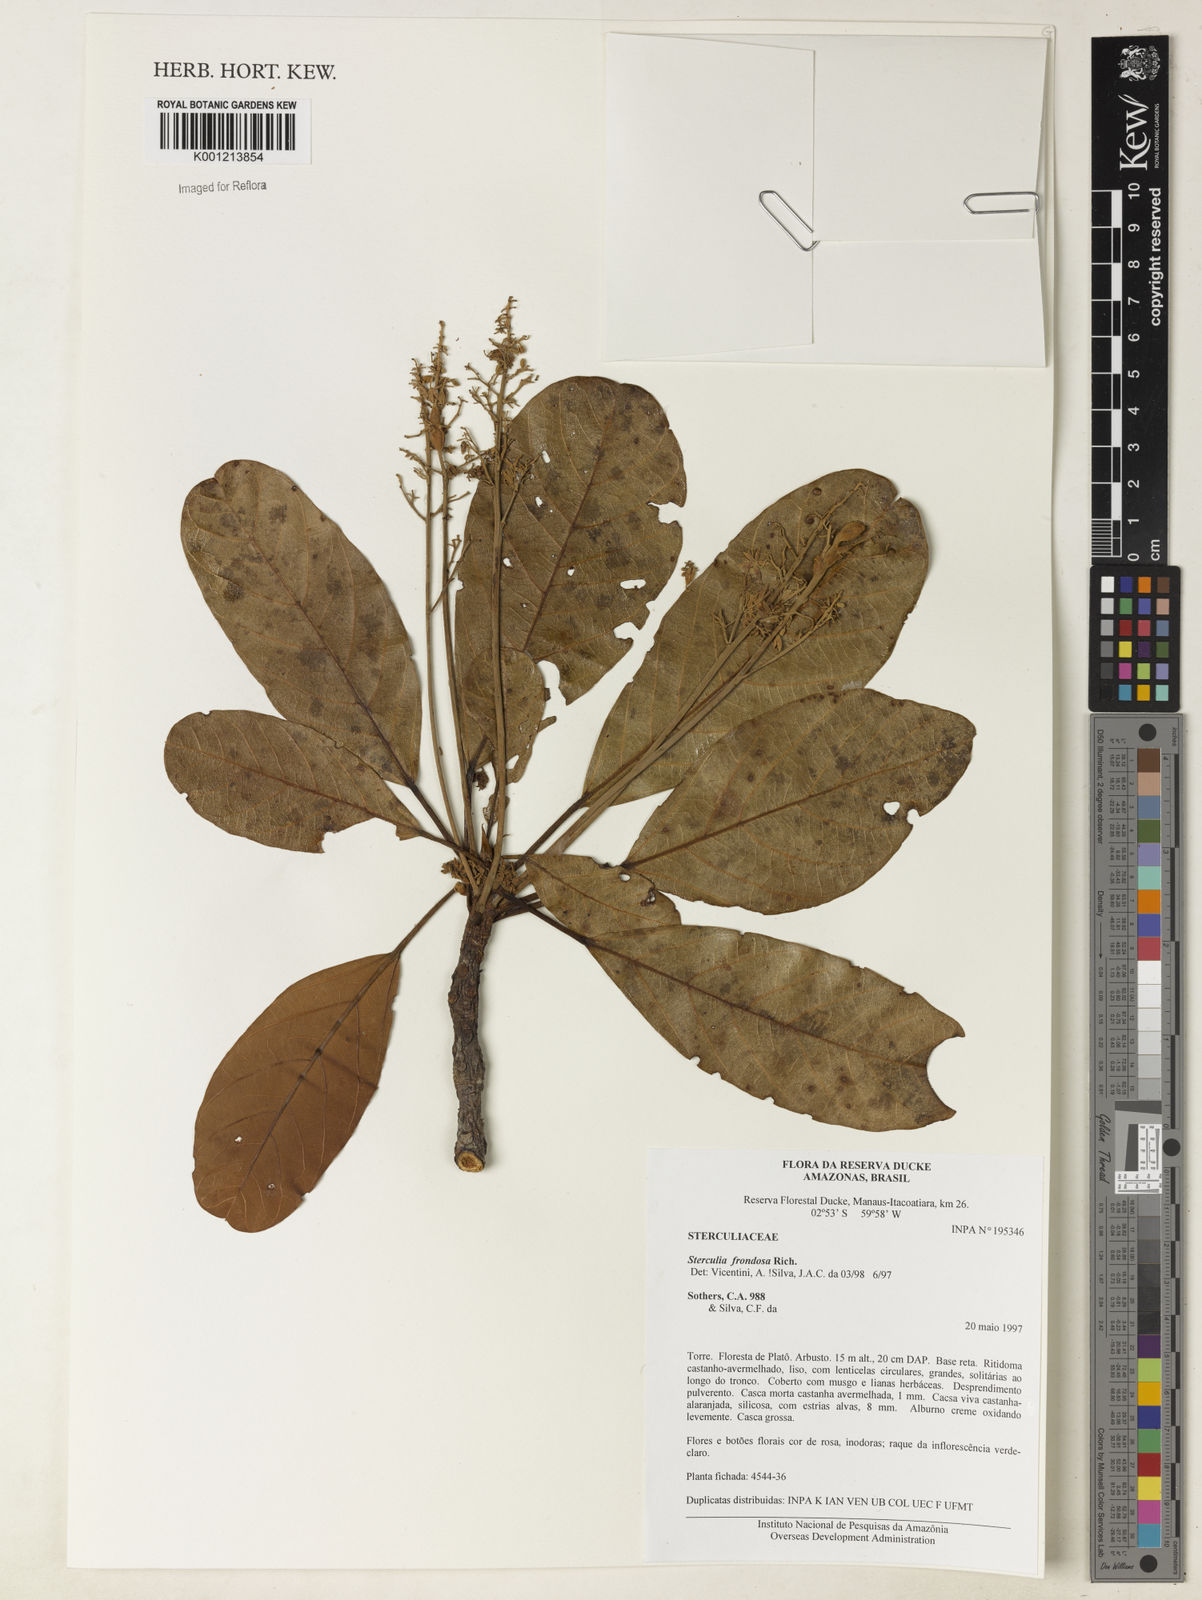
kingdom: Plantae
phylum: Tracheophyta
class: Magnoliopsida
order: Malvales
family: Malvaceae
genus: Sterculia
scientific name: Sterculia frondosa
